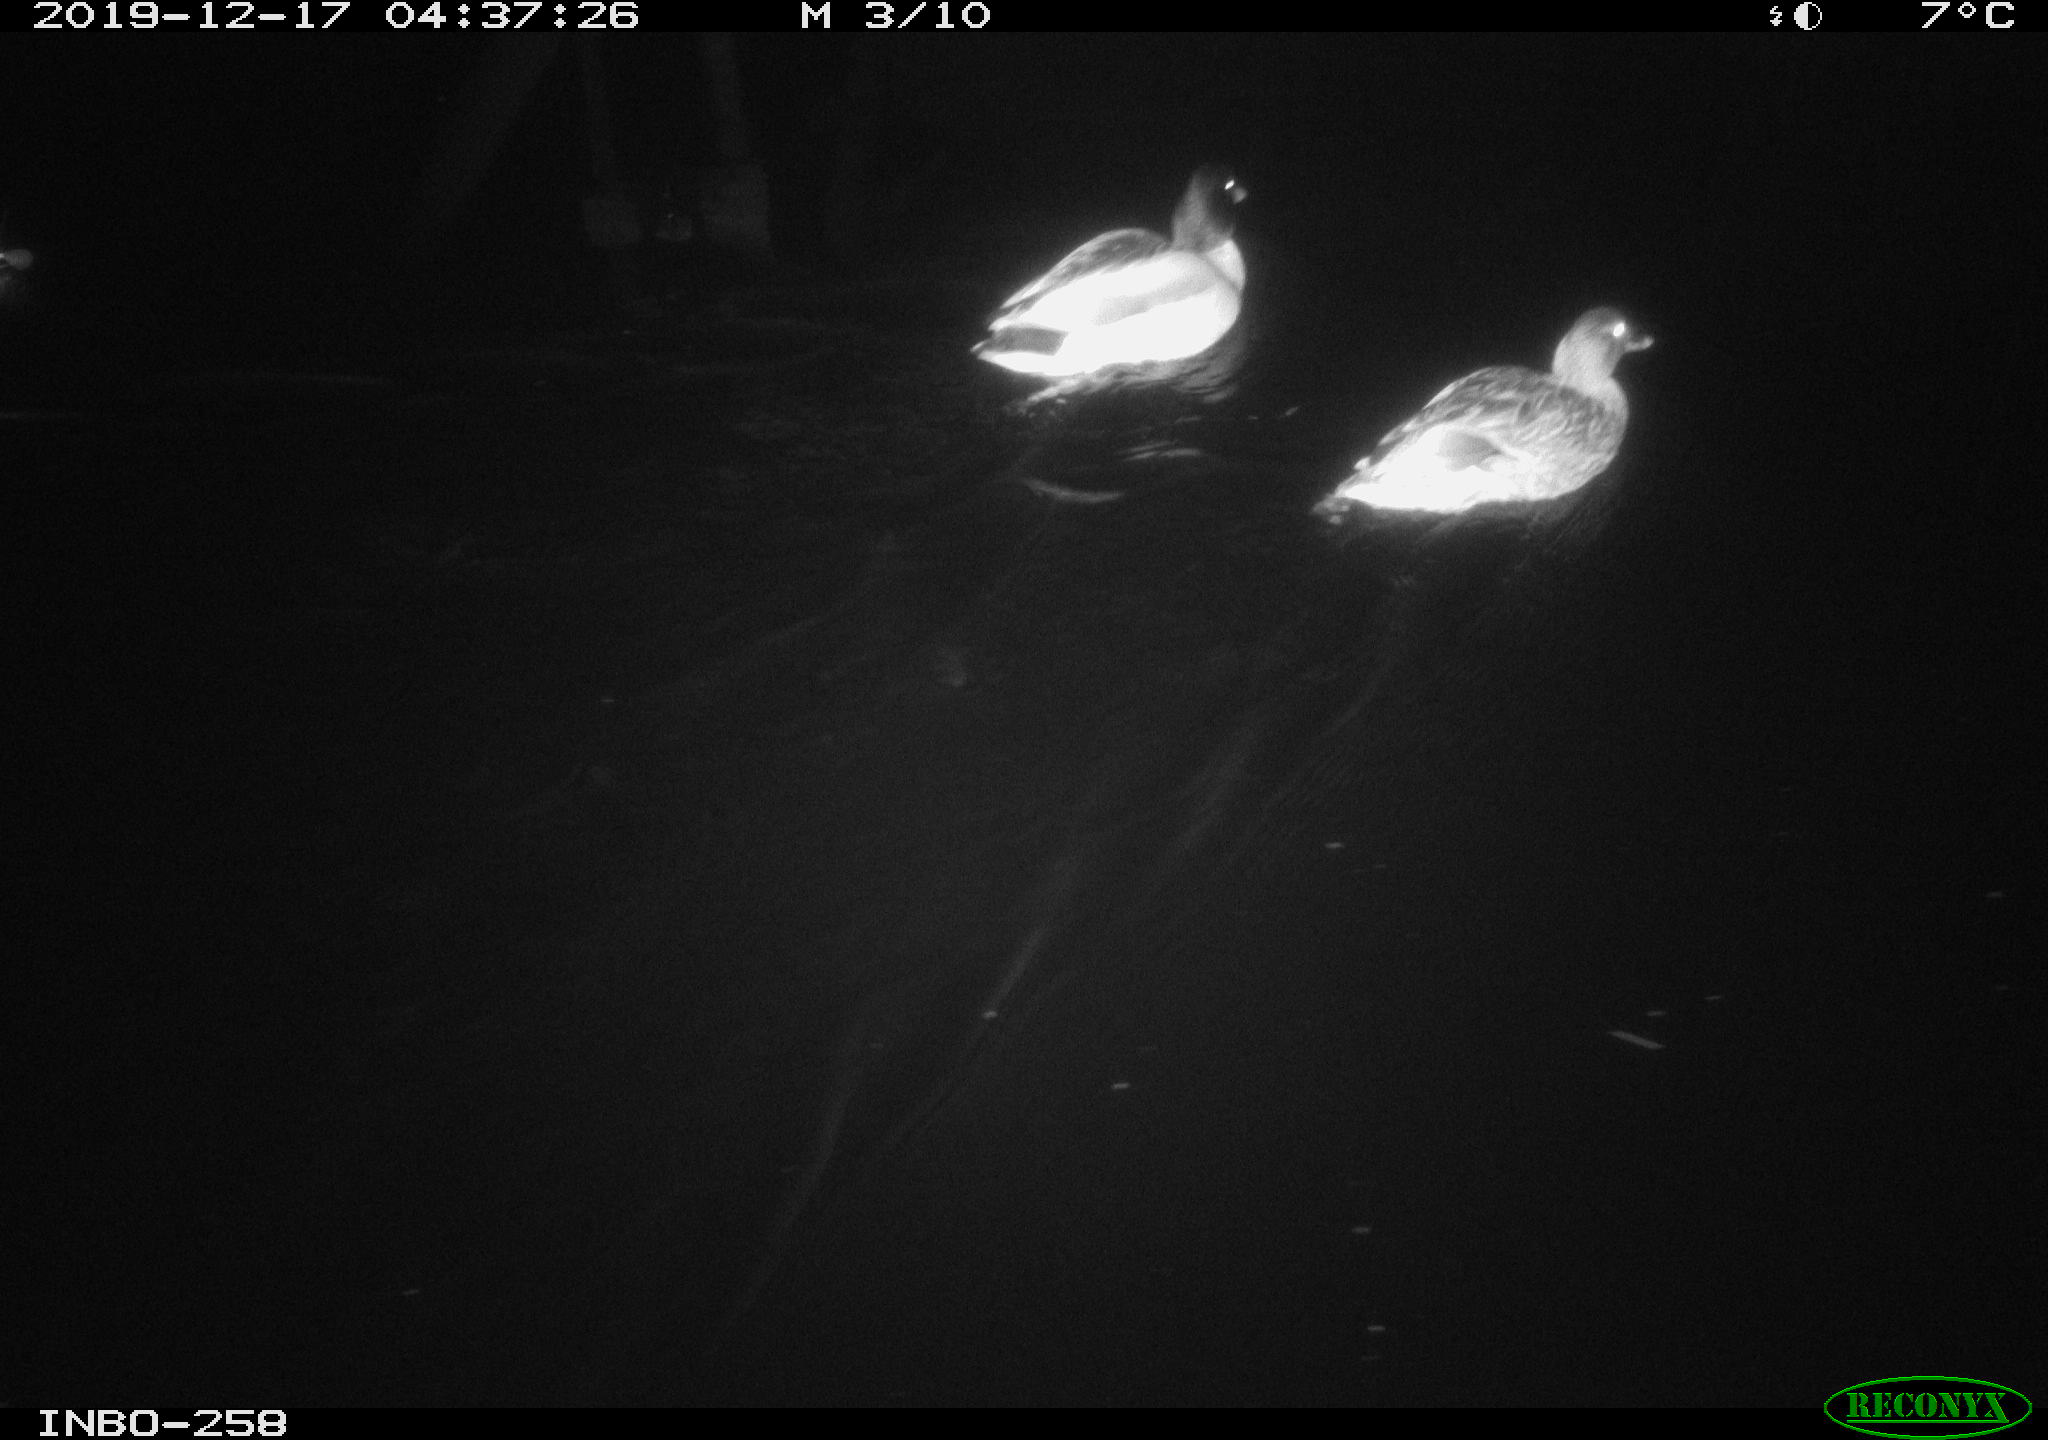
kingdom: Animalia
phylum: Chordata
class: Aves
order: Anseriformes
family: Anatidae
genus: Anas
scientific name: Anas platyrhynchos
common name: Mallard
